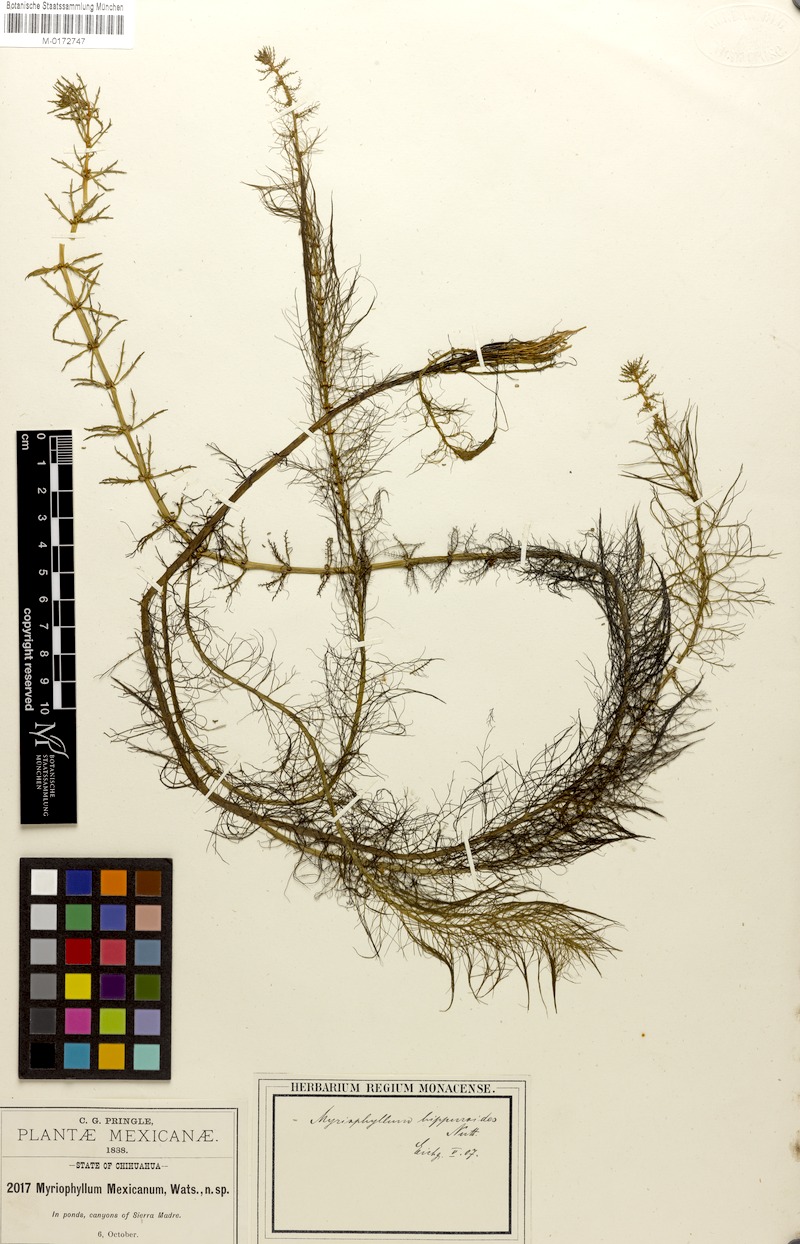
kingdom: Plantae
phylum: Tracheophyta
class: Magnoliopsida
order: Saxifragales
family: Haloragaceae
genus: Myriophyllum
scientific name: Myriophyllum hippuroides
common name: Western milfoil
